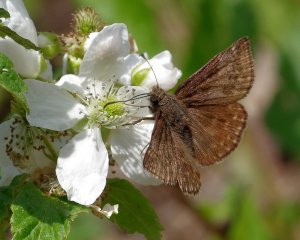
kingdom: Animalia
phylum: Arthropoda
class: Insecta
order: Lepidoptera
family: Hesperiidae
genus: Erynnis
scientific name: Erynnis brizo
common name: Sleepy Duskywing
